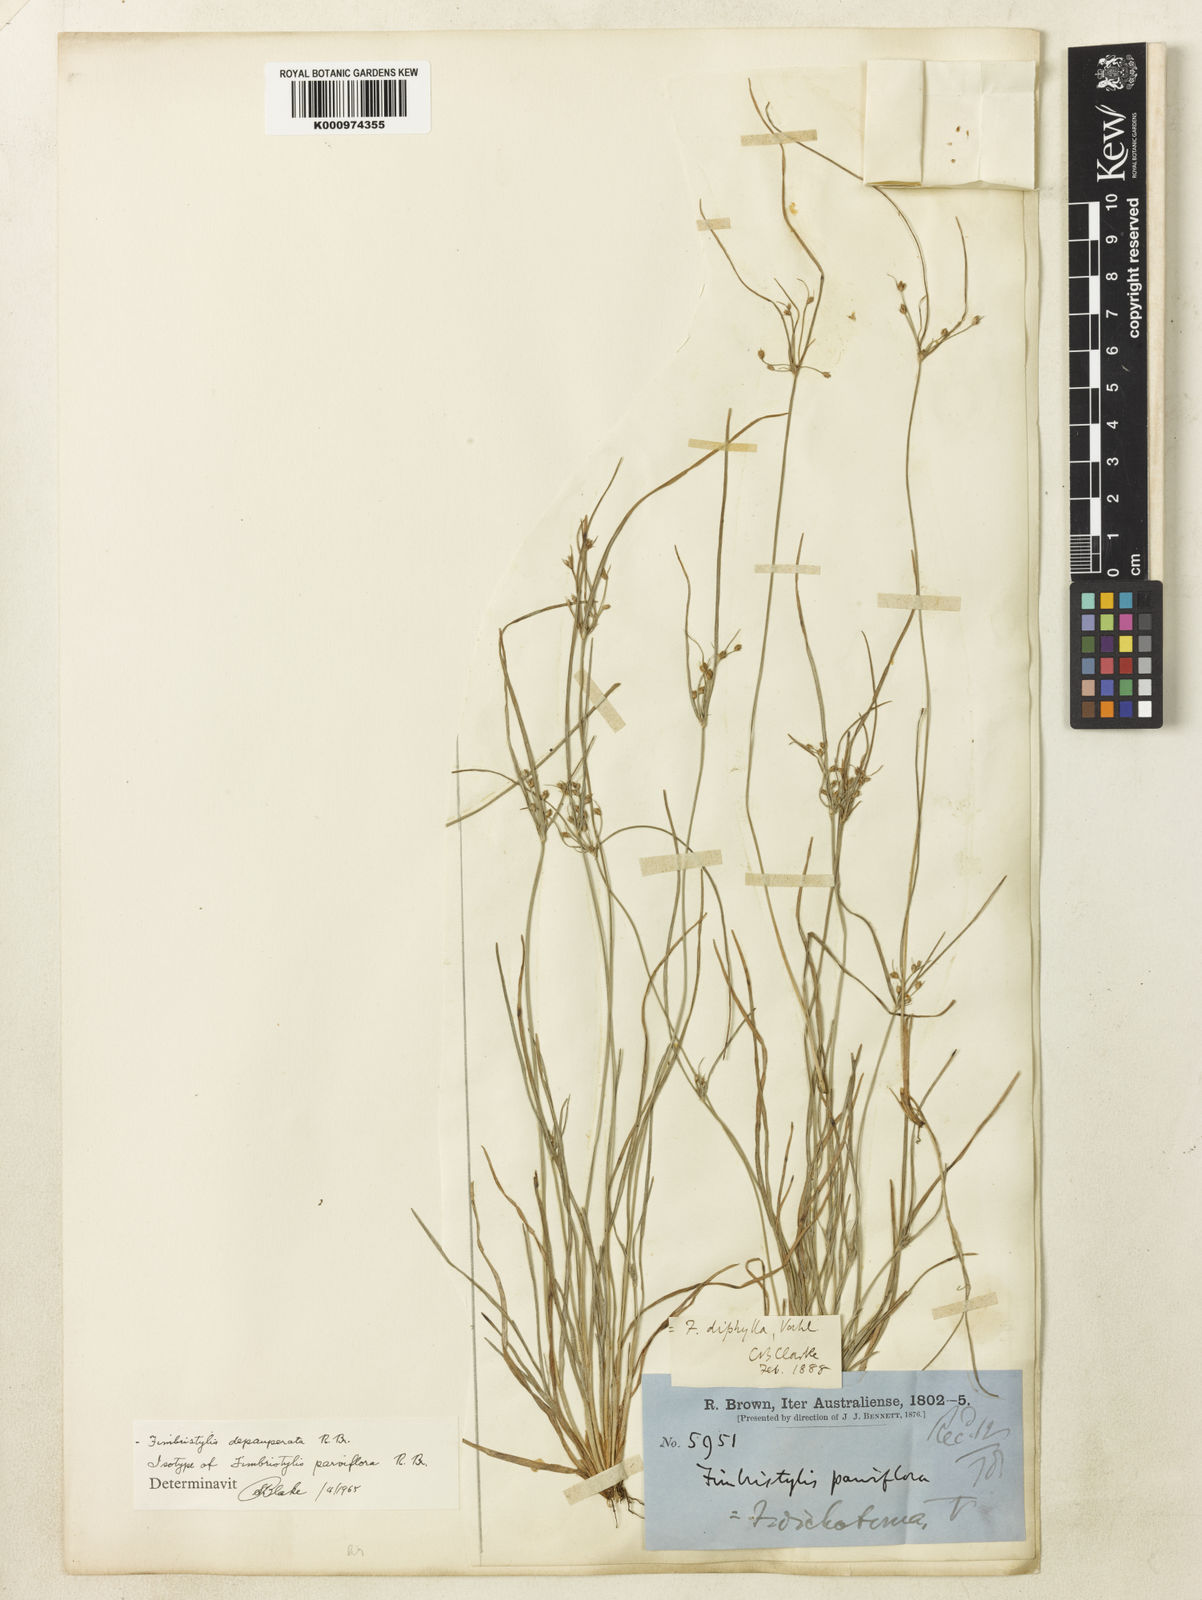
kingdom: Plantae
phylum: Tracheophyta
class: Liliopsida
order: Poales
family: Cyperaceae
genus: Fimbristylis
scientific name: Fimbristylis dichotoma
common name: Forked fimbry
